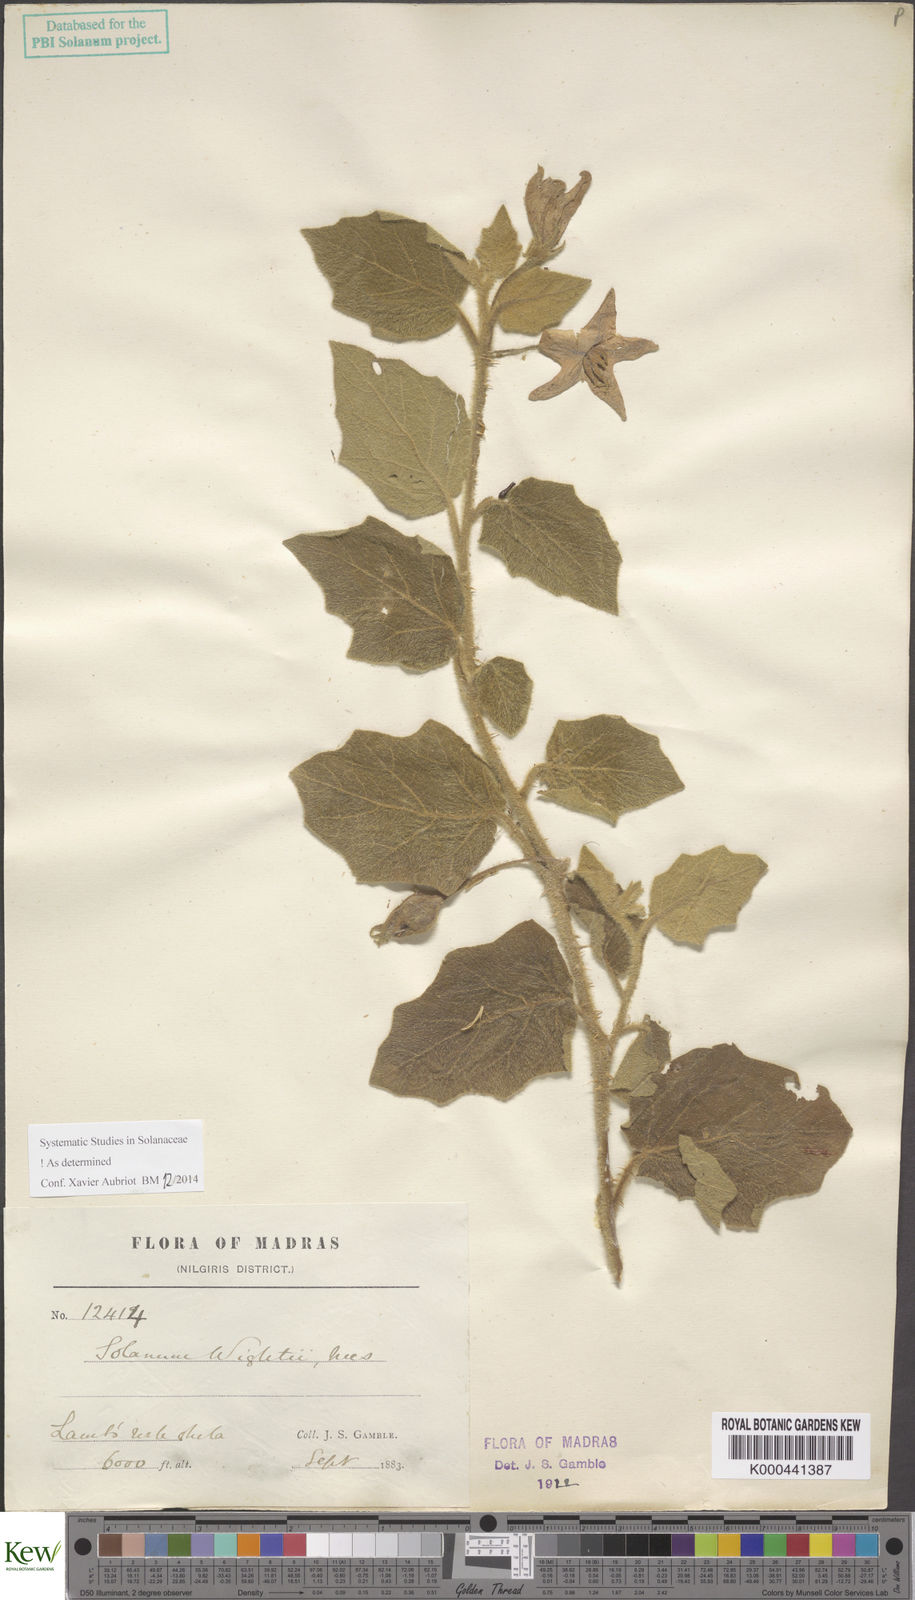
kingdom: Plantae
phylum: Tracheophyta
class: Magnoliopsida
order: Solanales
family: Solanaceae
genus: Solanum
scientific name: Solanum wightii
